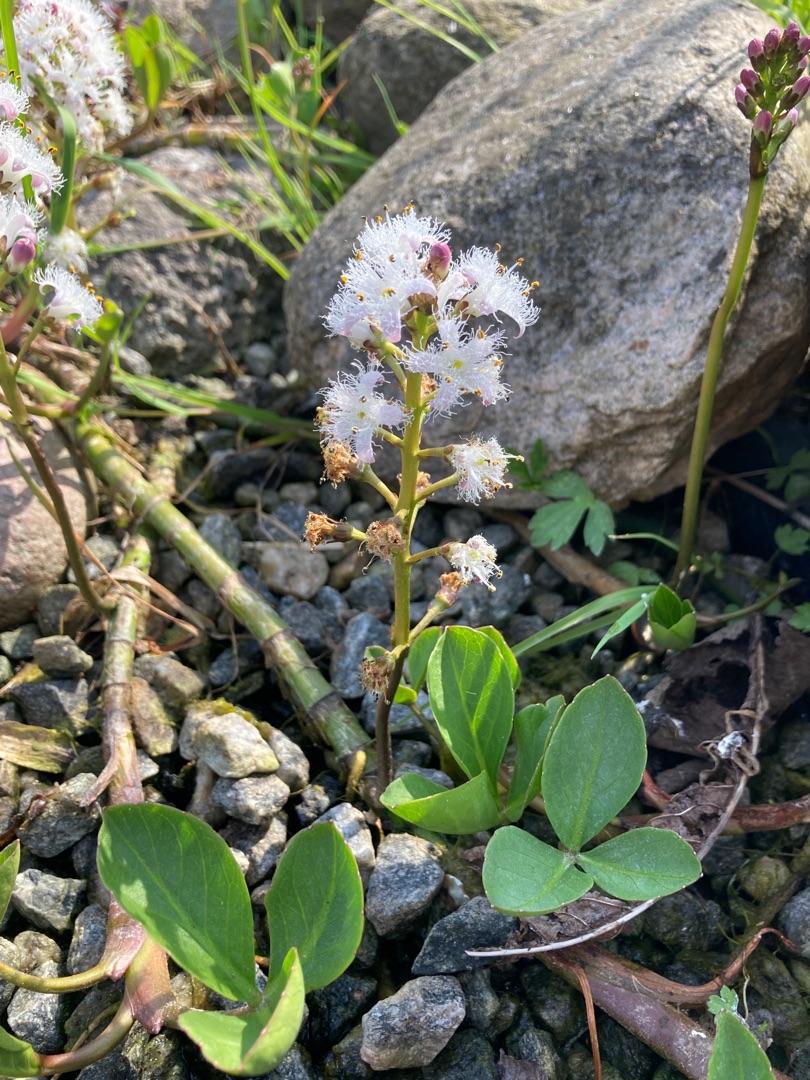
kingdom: Plantae
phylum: Tracheophyta
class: Magnoliopsida
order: Asterales
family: Menyanthaceae
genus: Menyanthes
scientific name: Menyanthes trifoliata
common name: Bukkeblad
